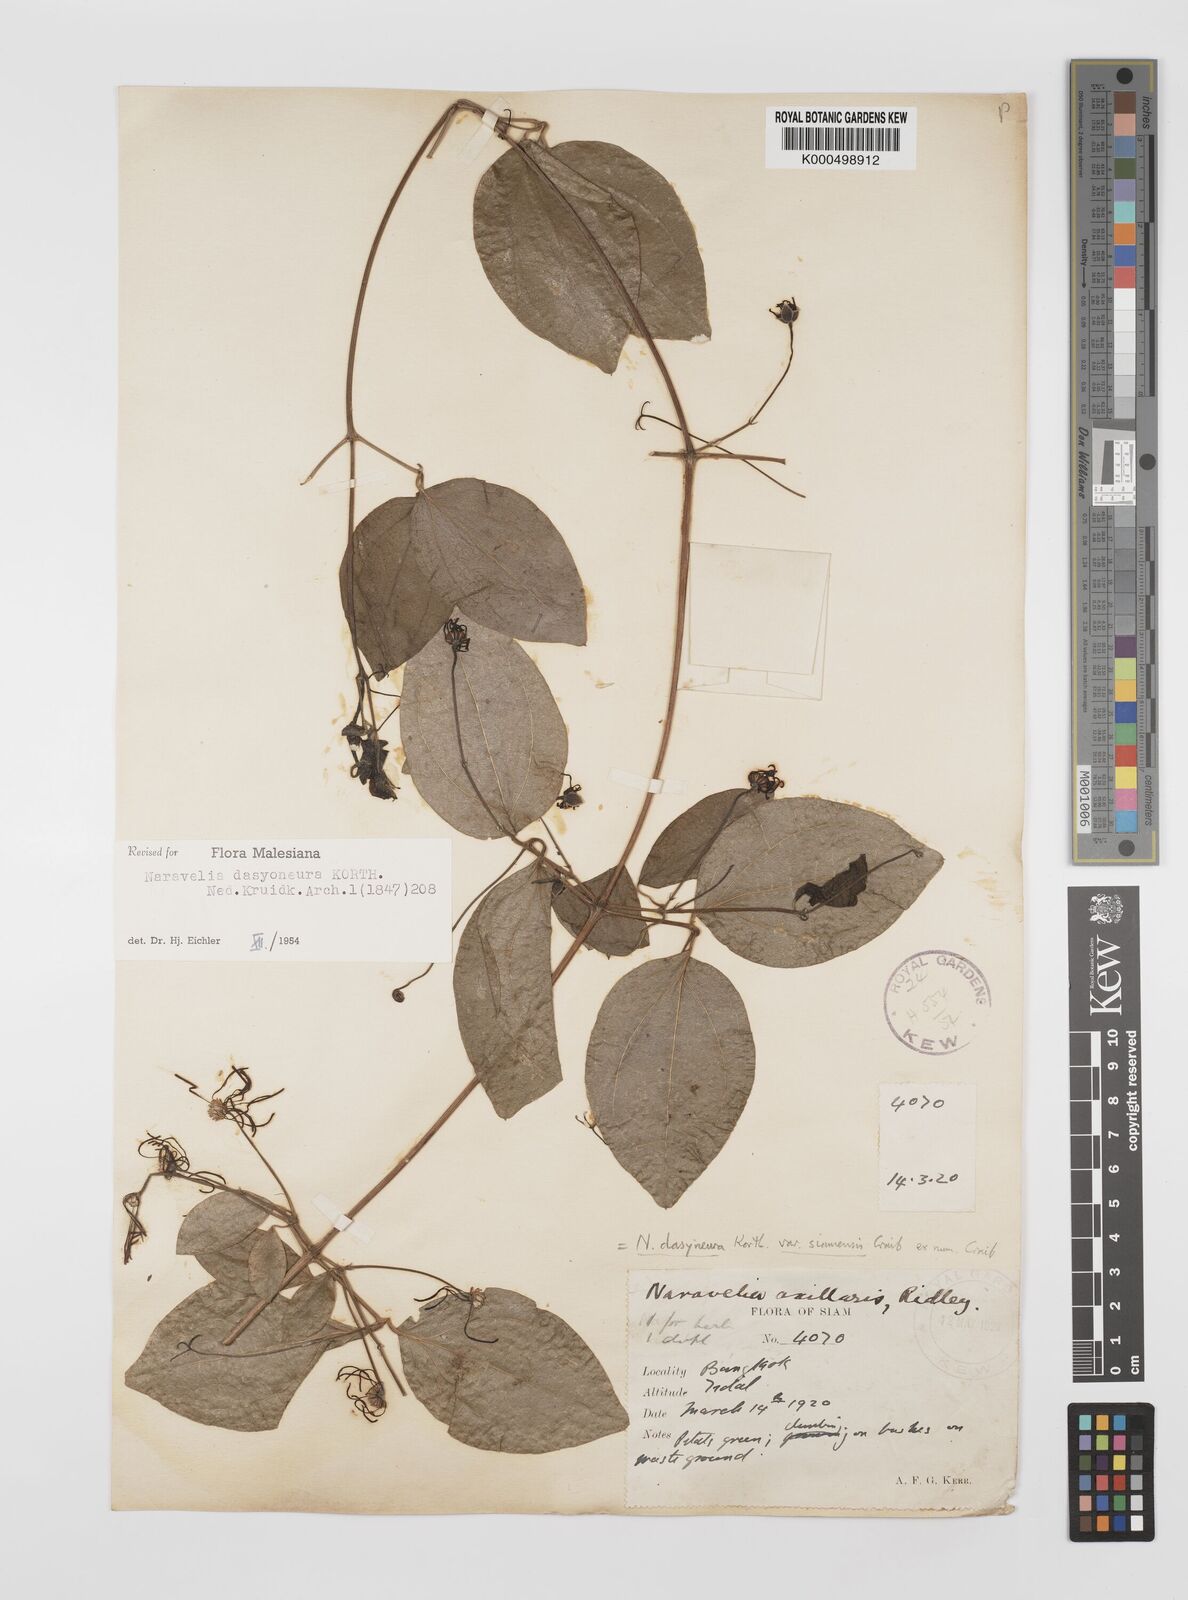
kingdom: Plantae
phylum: Tracheophyta
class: Magnoliopsida
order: Ranunculales
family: Ranunculaceae
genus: Clematis
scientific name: Clematis dasyoneura
